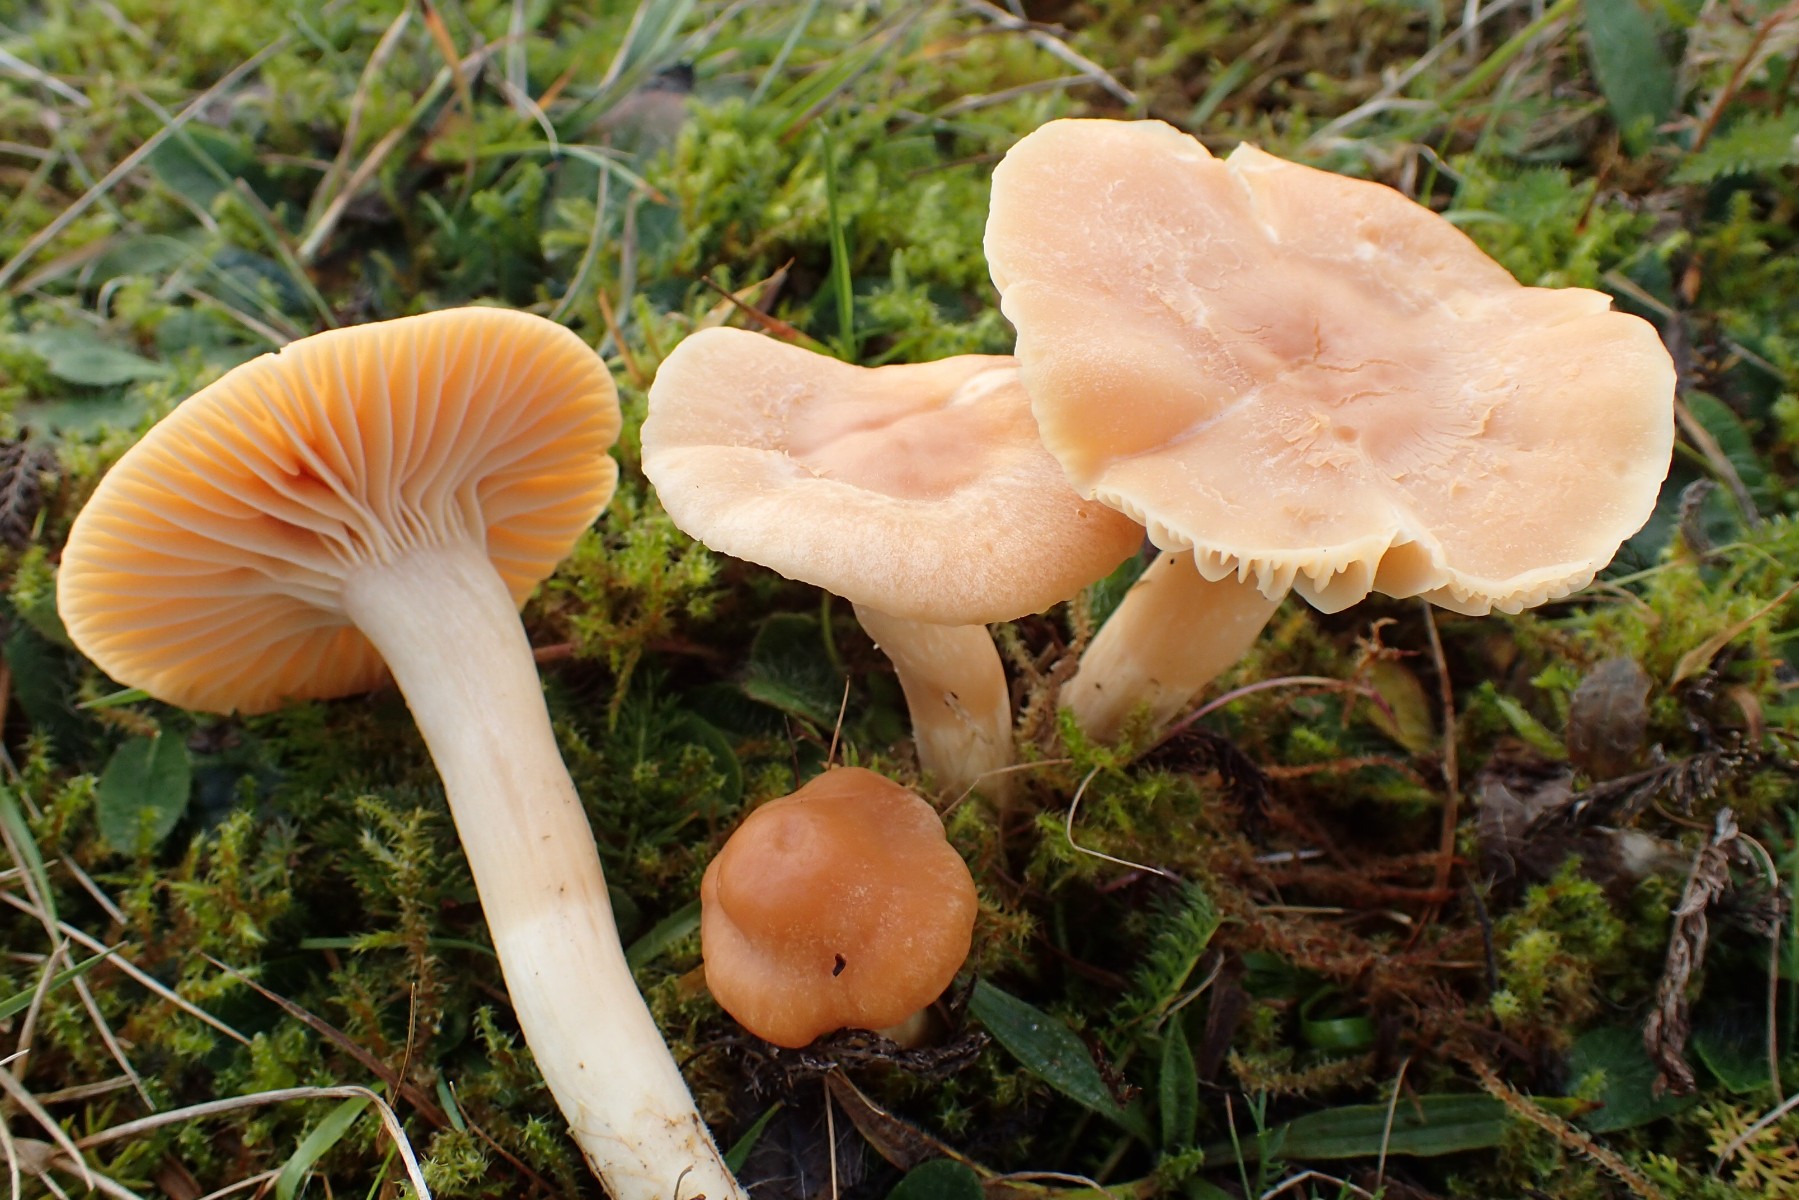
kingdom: Fungi
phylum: Basidiomycota
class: Agaricomycetes
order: Agaricales
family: Hygrophoraceae
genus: Cuphophyllus
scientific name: Cuphophyllus pratensis
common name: eng-vokshat
